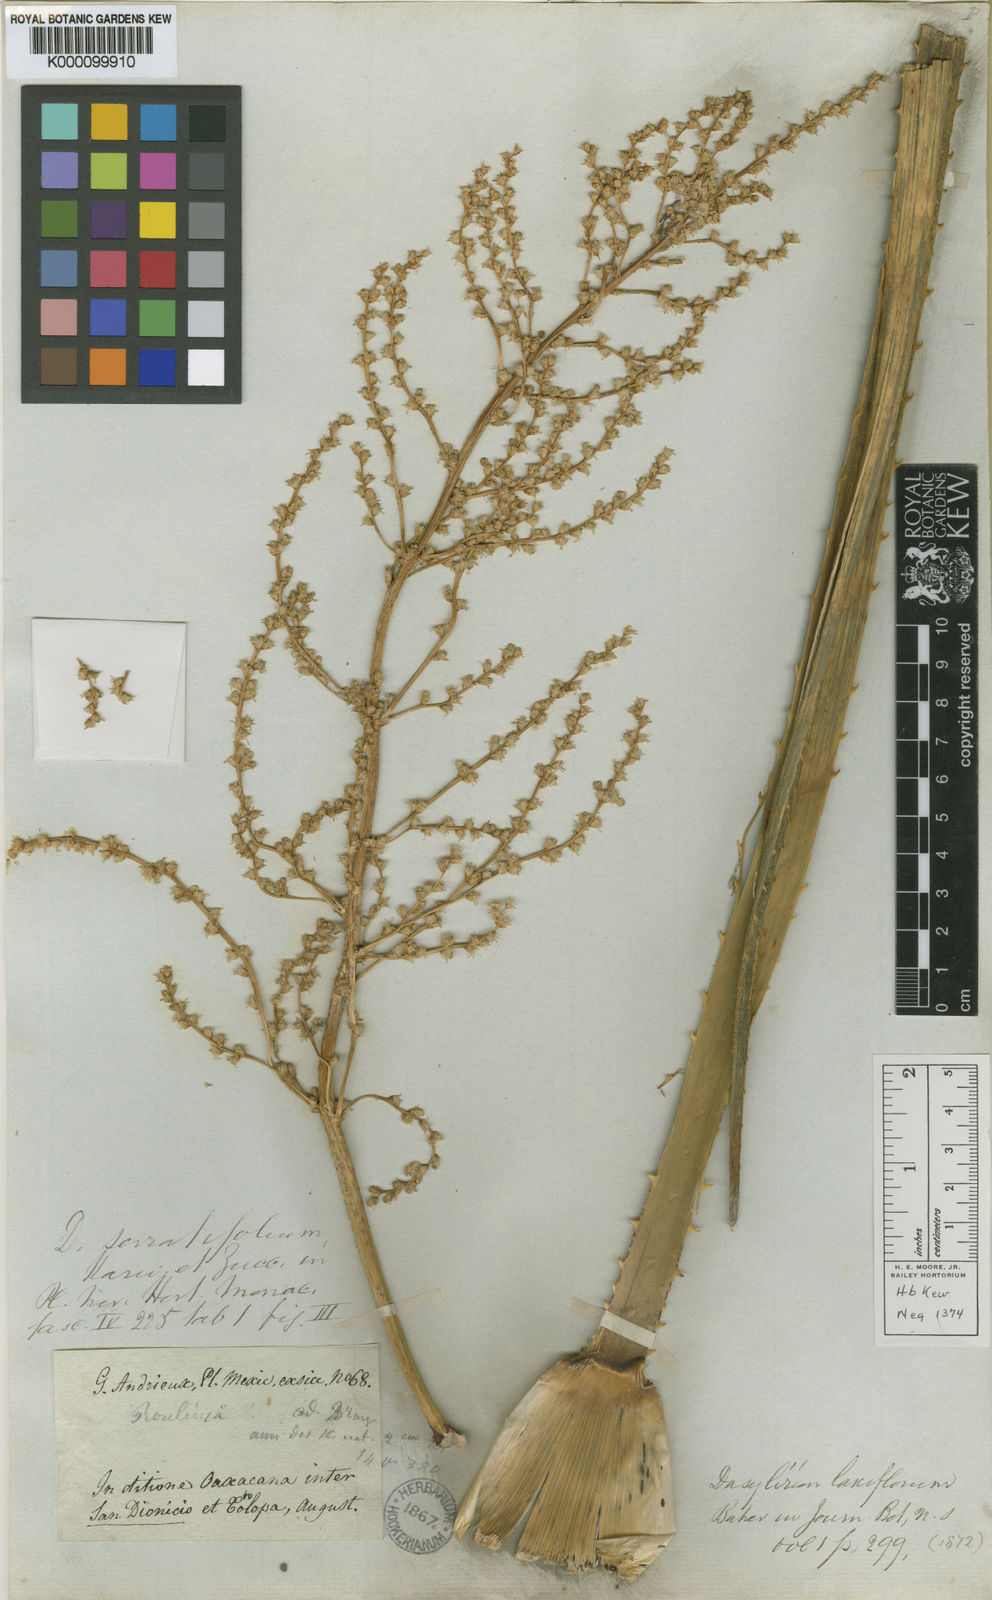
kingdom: Plantae
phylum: Tracheophyta
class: Liliopsida
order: Asparagales
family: Asparagaceae
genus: Dasylirion
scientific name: Dasylirion serratifolium
